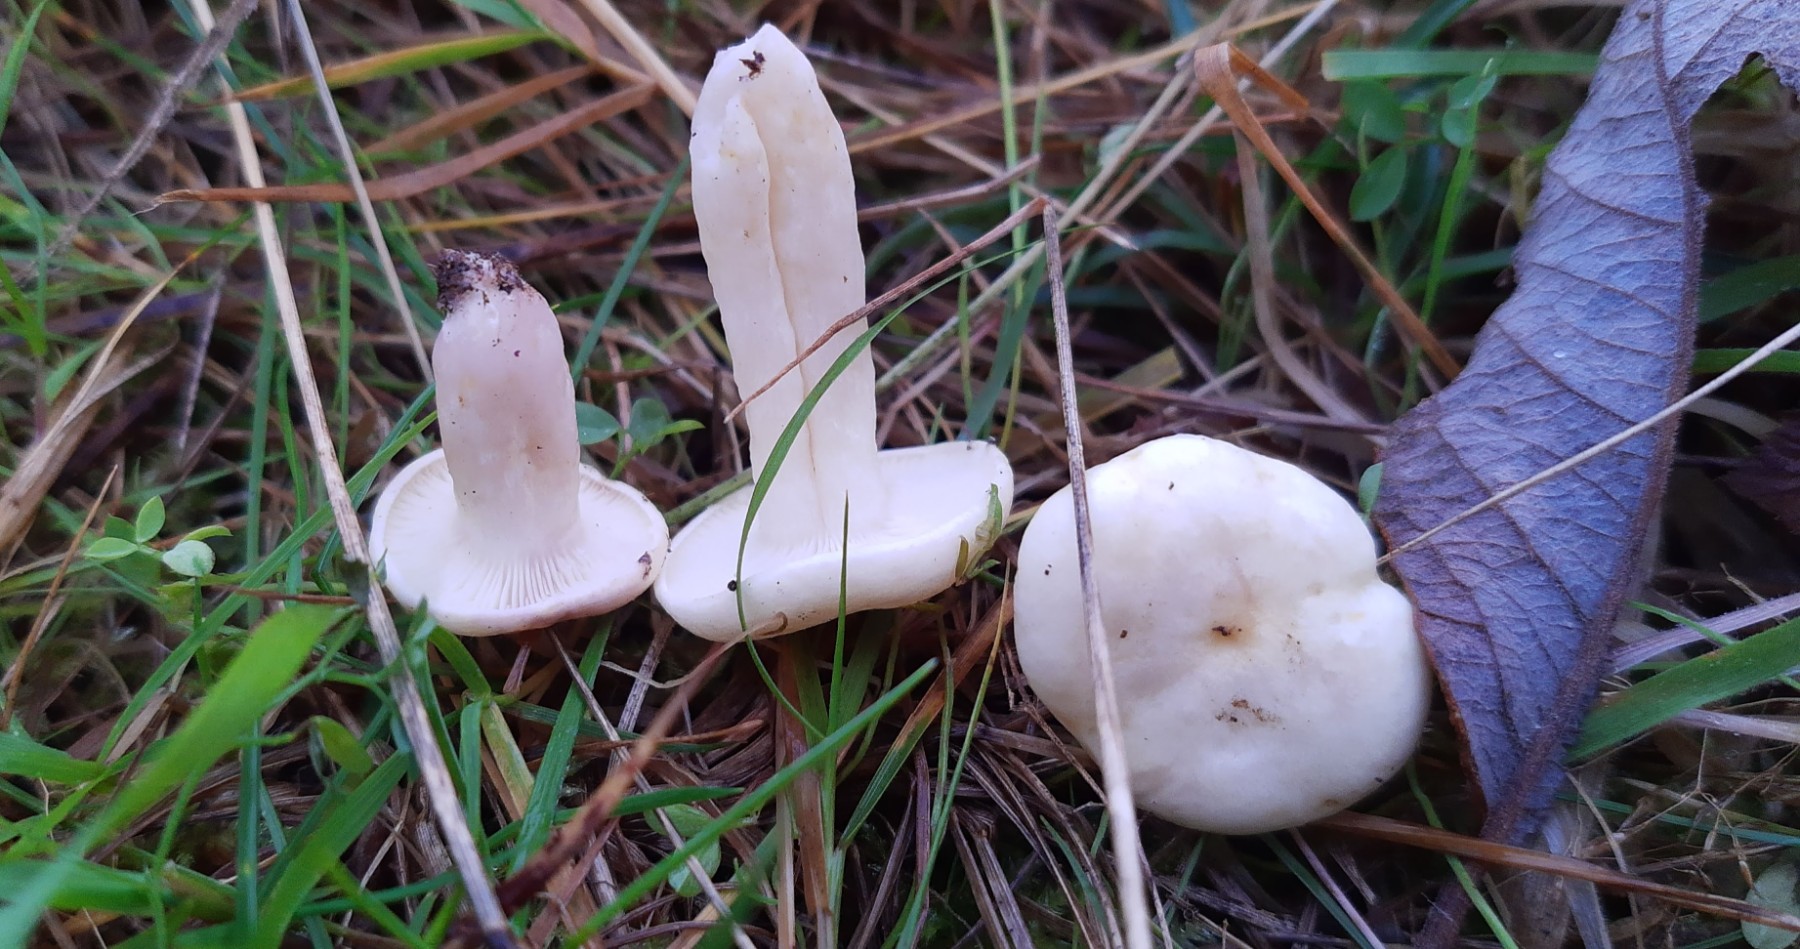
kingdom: Fungi
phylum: Basidiomycota
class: Agaricomycetes
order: Russulales
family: Russulaceae
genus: Lactarius
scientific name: Lactarius aspideus
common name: pile-mælkehat
